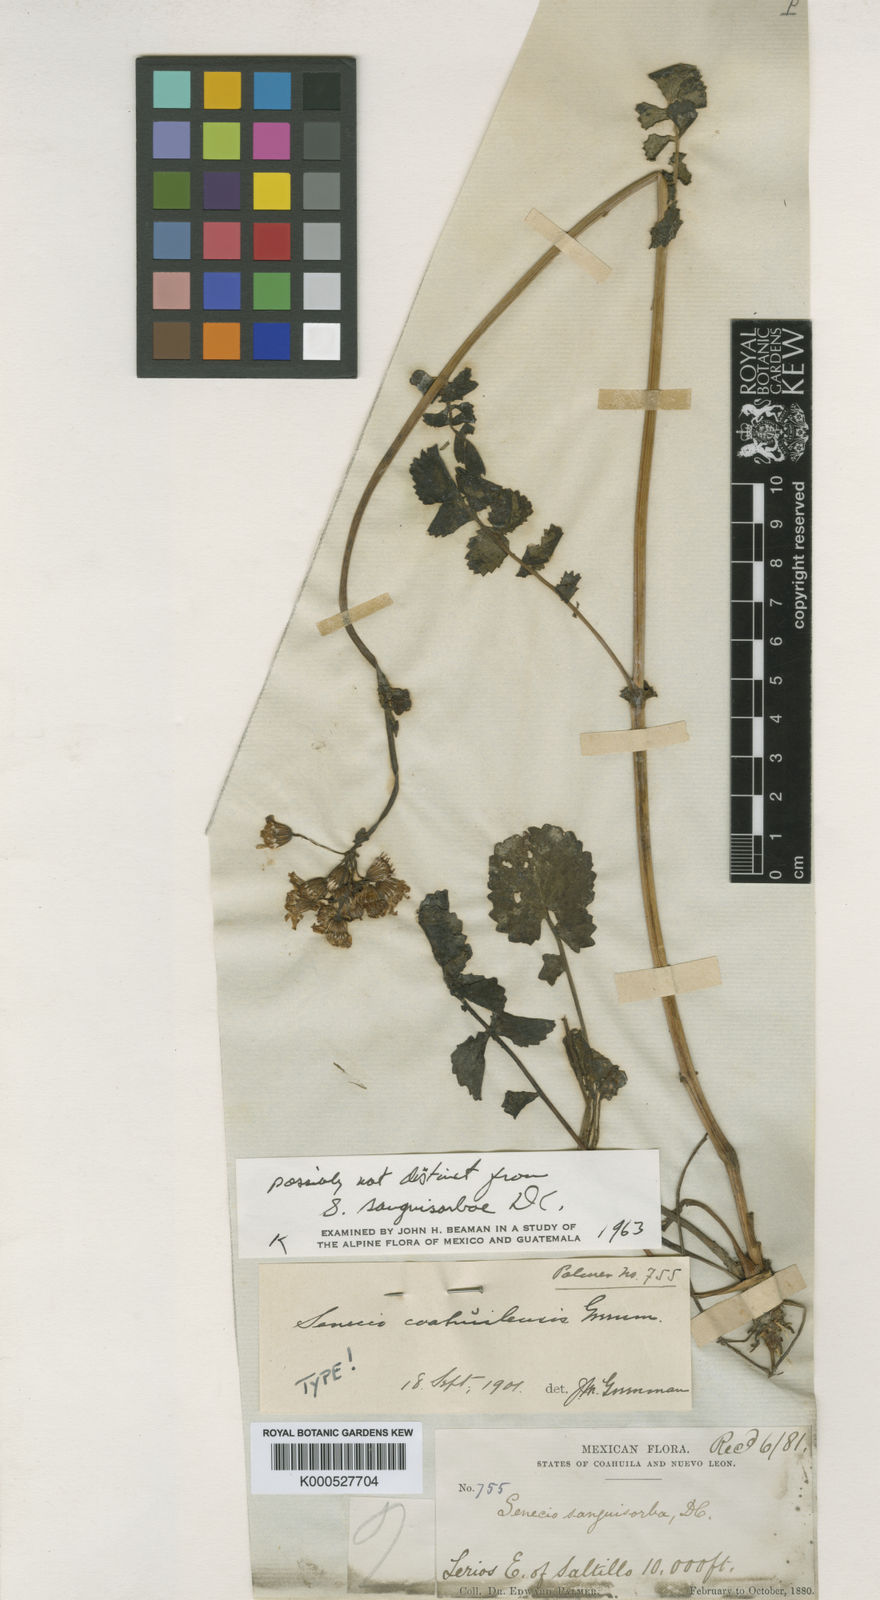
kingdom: Plantae
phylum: Tracheophyta
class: Magnoliopsida
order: Asterales
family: Asteraceae
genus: Packera
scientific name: Packera coahuilensis
